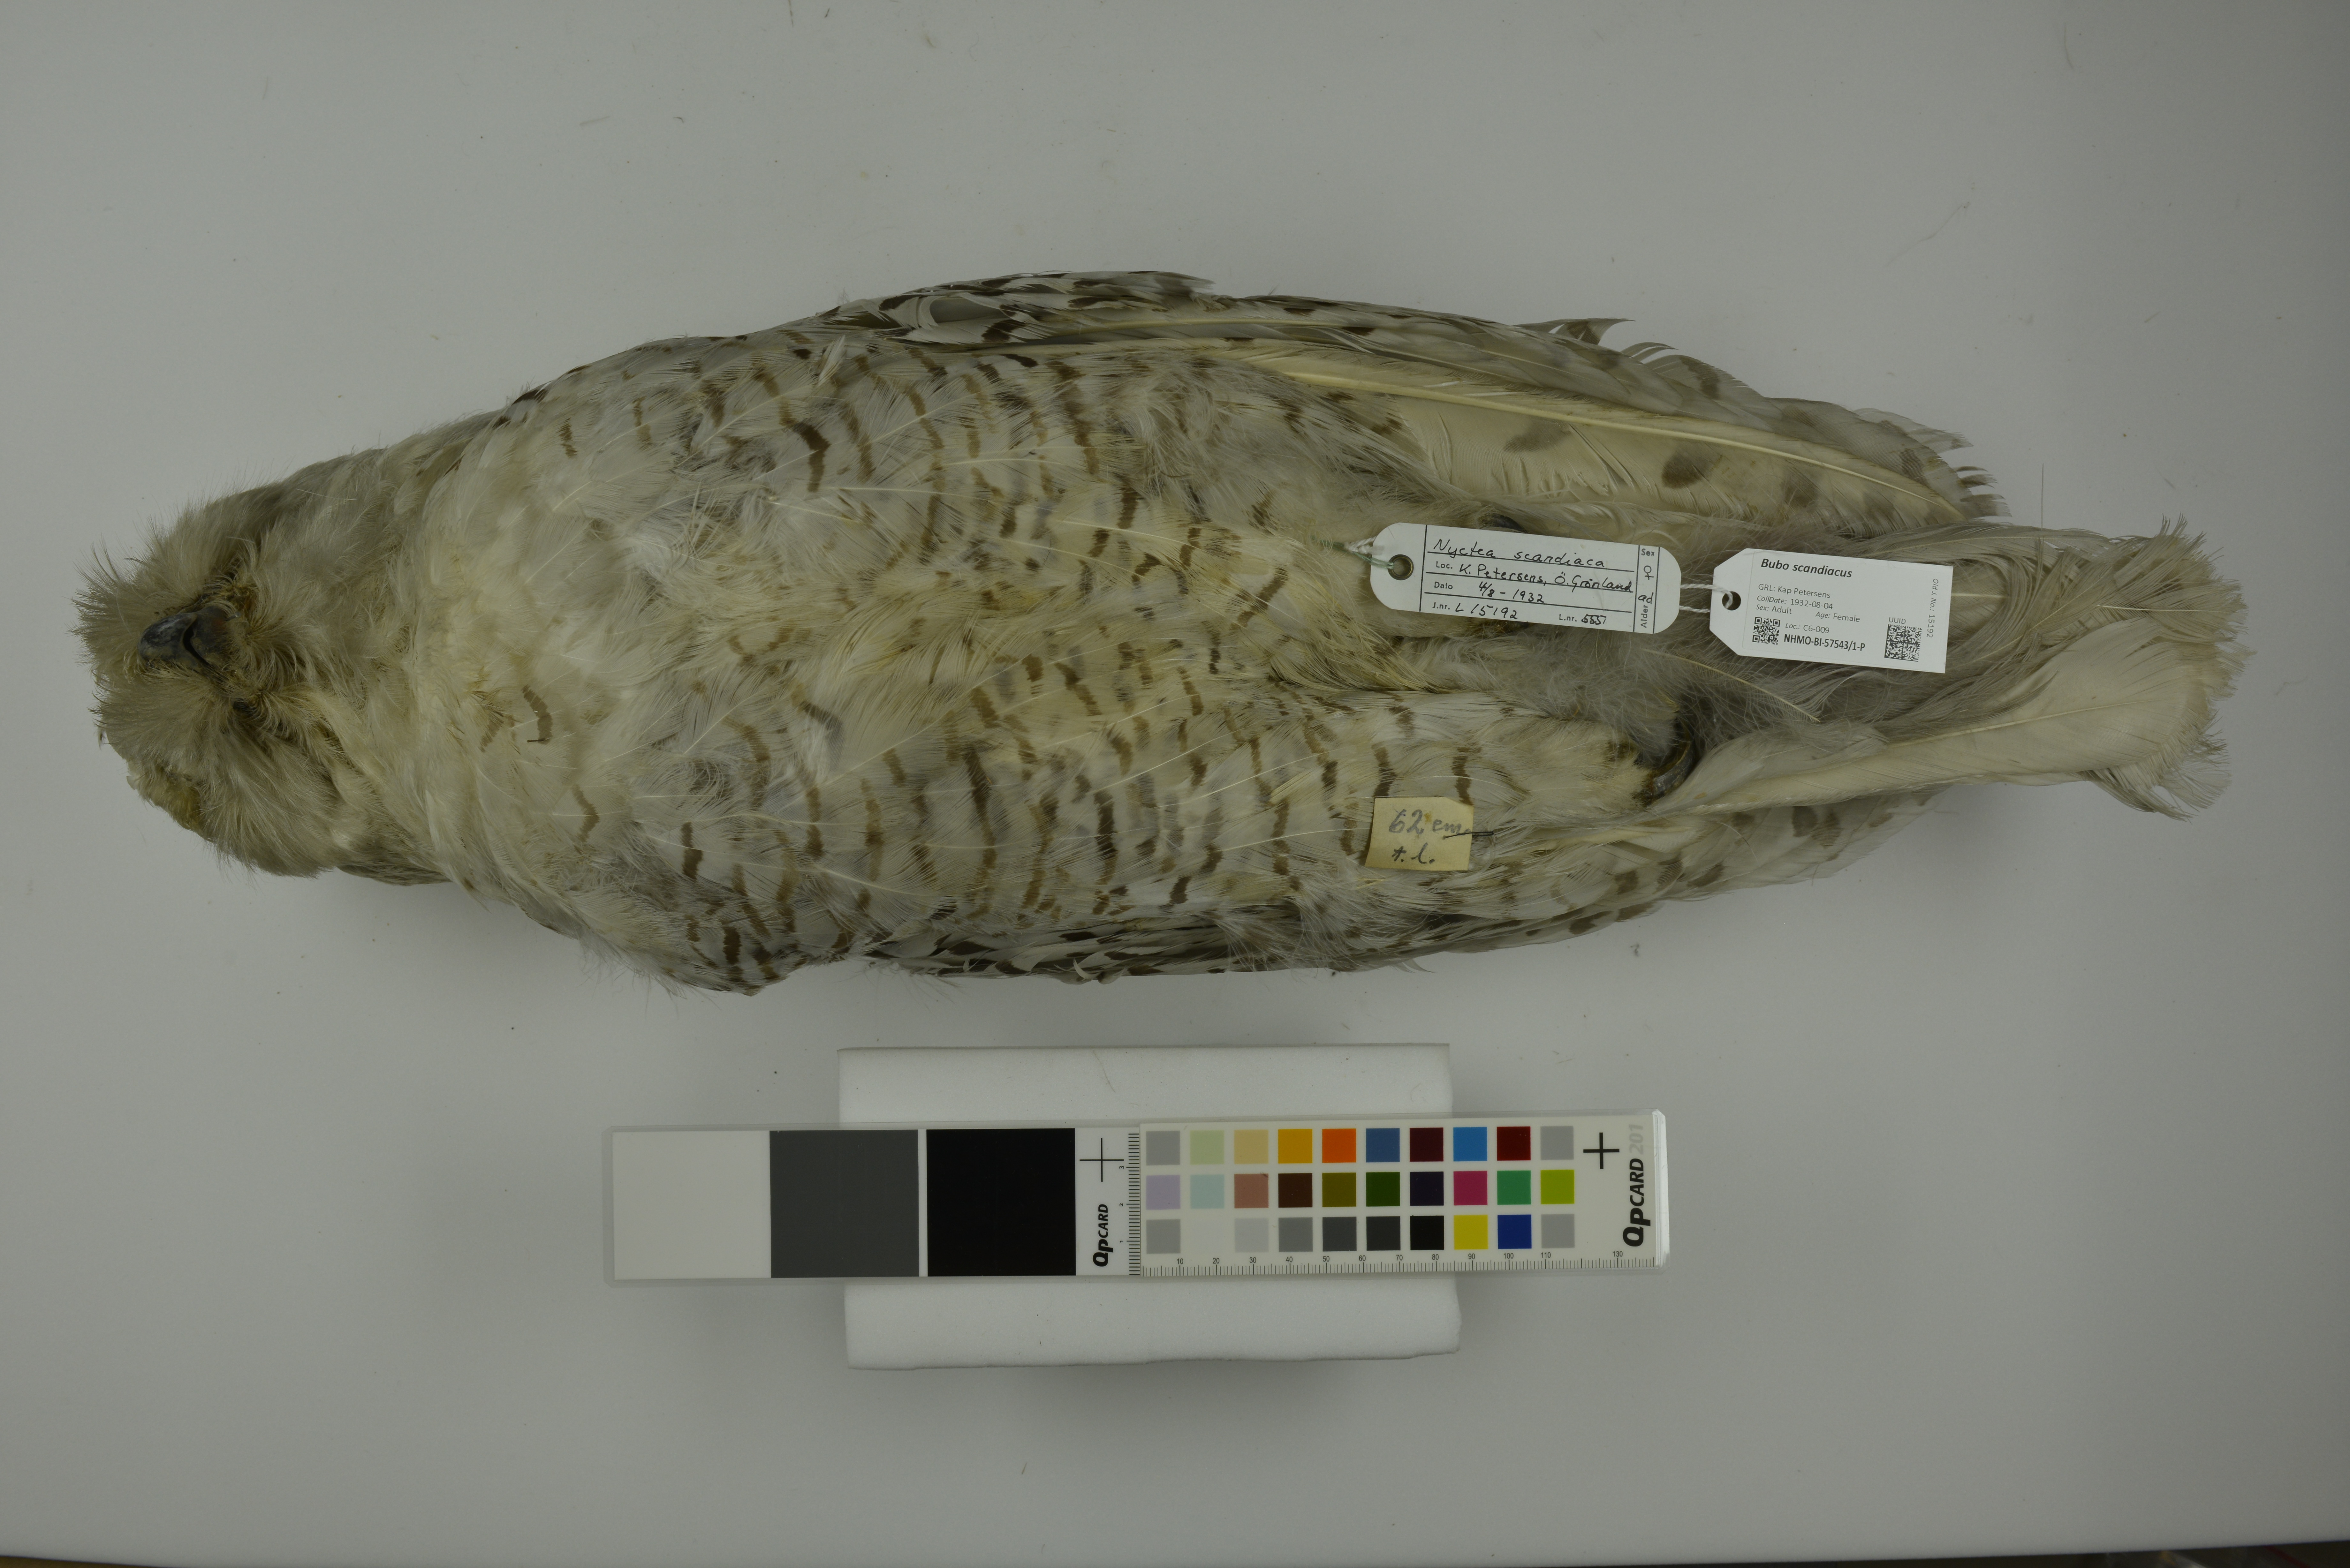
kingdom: Animalia
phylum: Chordata
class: Aves
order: Strigiformes
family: Strigidae
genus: Bubo
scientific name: Bubo scandiacus
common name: Snowy owl
